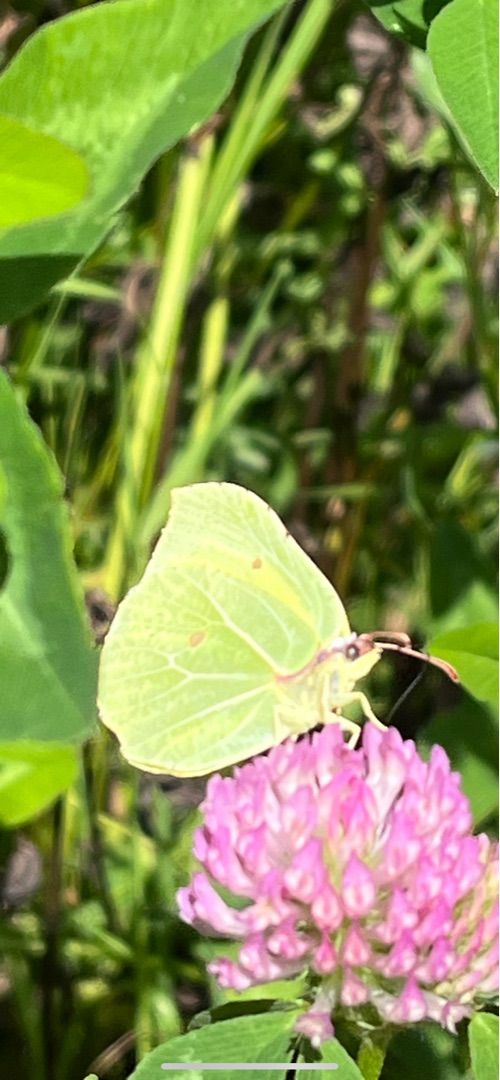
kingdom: Animalia
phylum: Arthropoda
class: Insecta
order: Lepidoptera
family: Pieridae
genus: Gonepteryx
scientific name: Gonepteryx rhamni
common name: Citronsommerfugl
